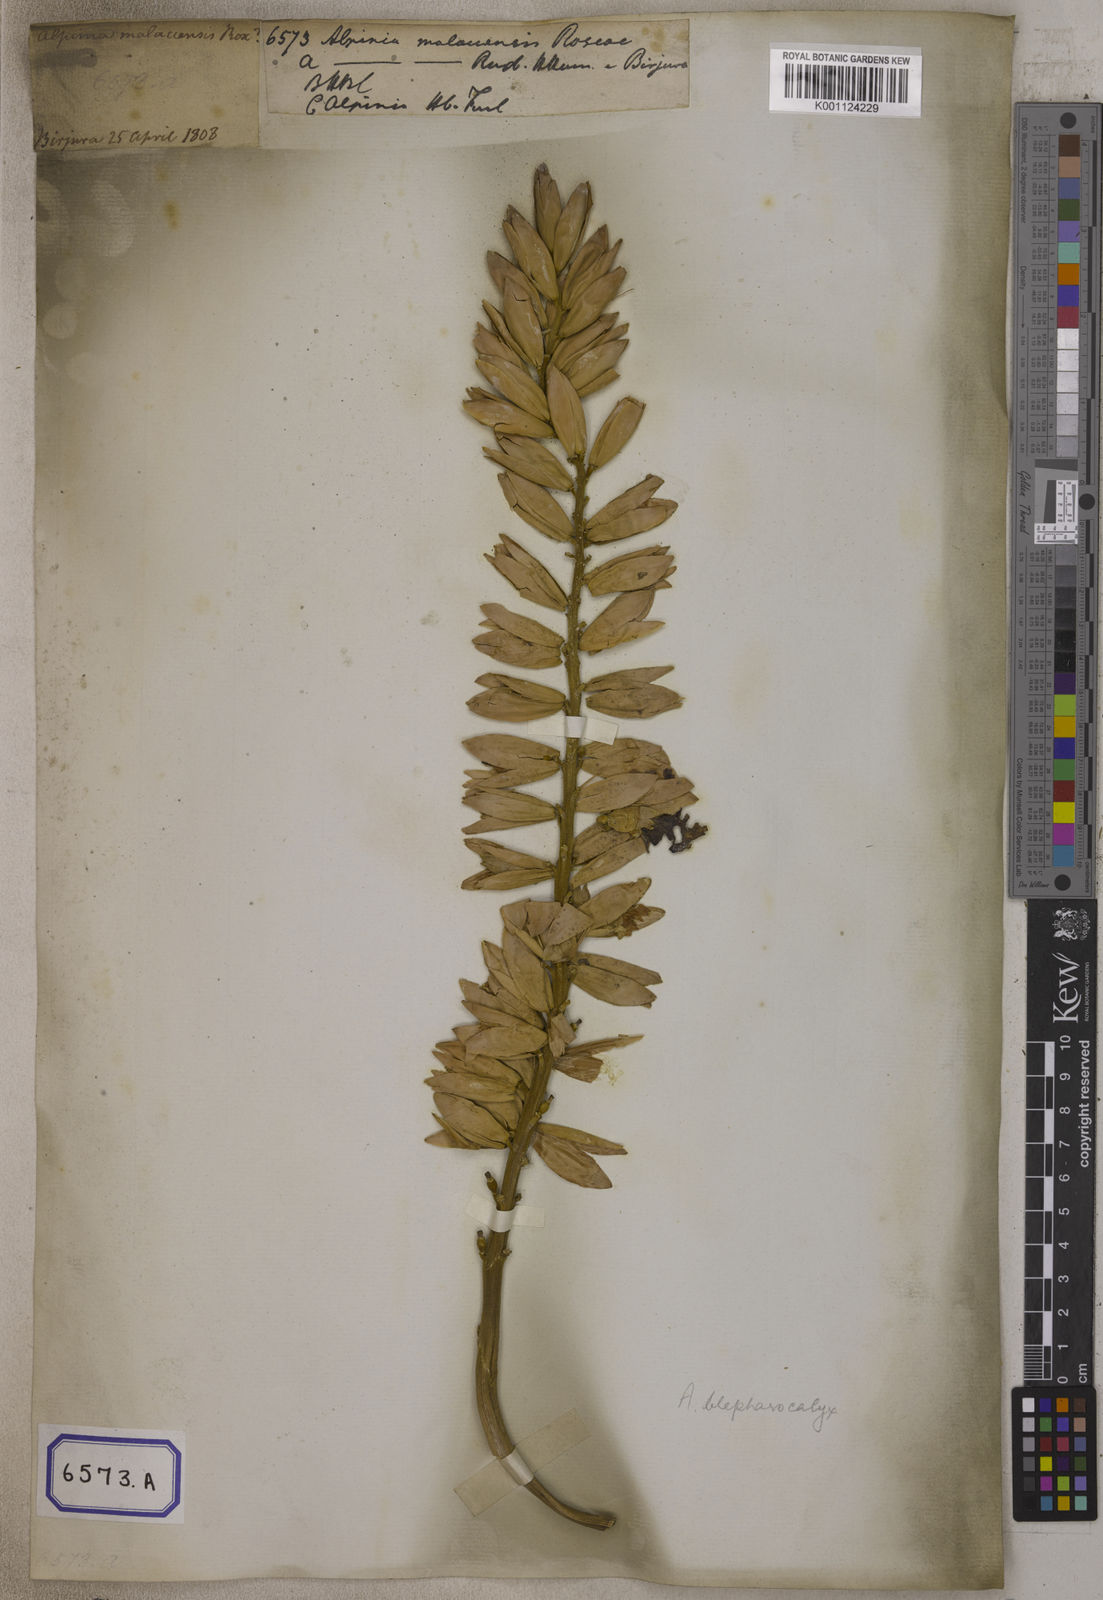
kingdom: Plantae
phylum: Tracheophyta
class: Liliopsida
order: Zingiberales
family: Zingiberaceae
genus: Alpinia
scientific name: Alpinia malaccensis
